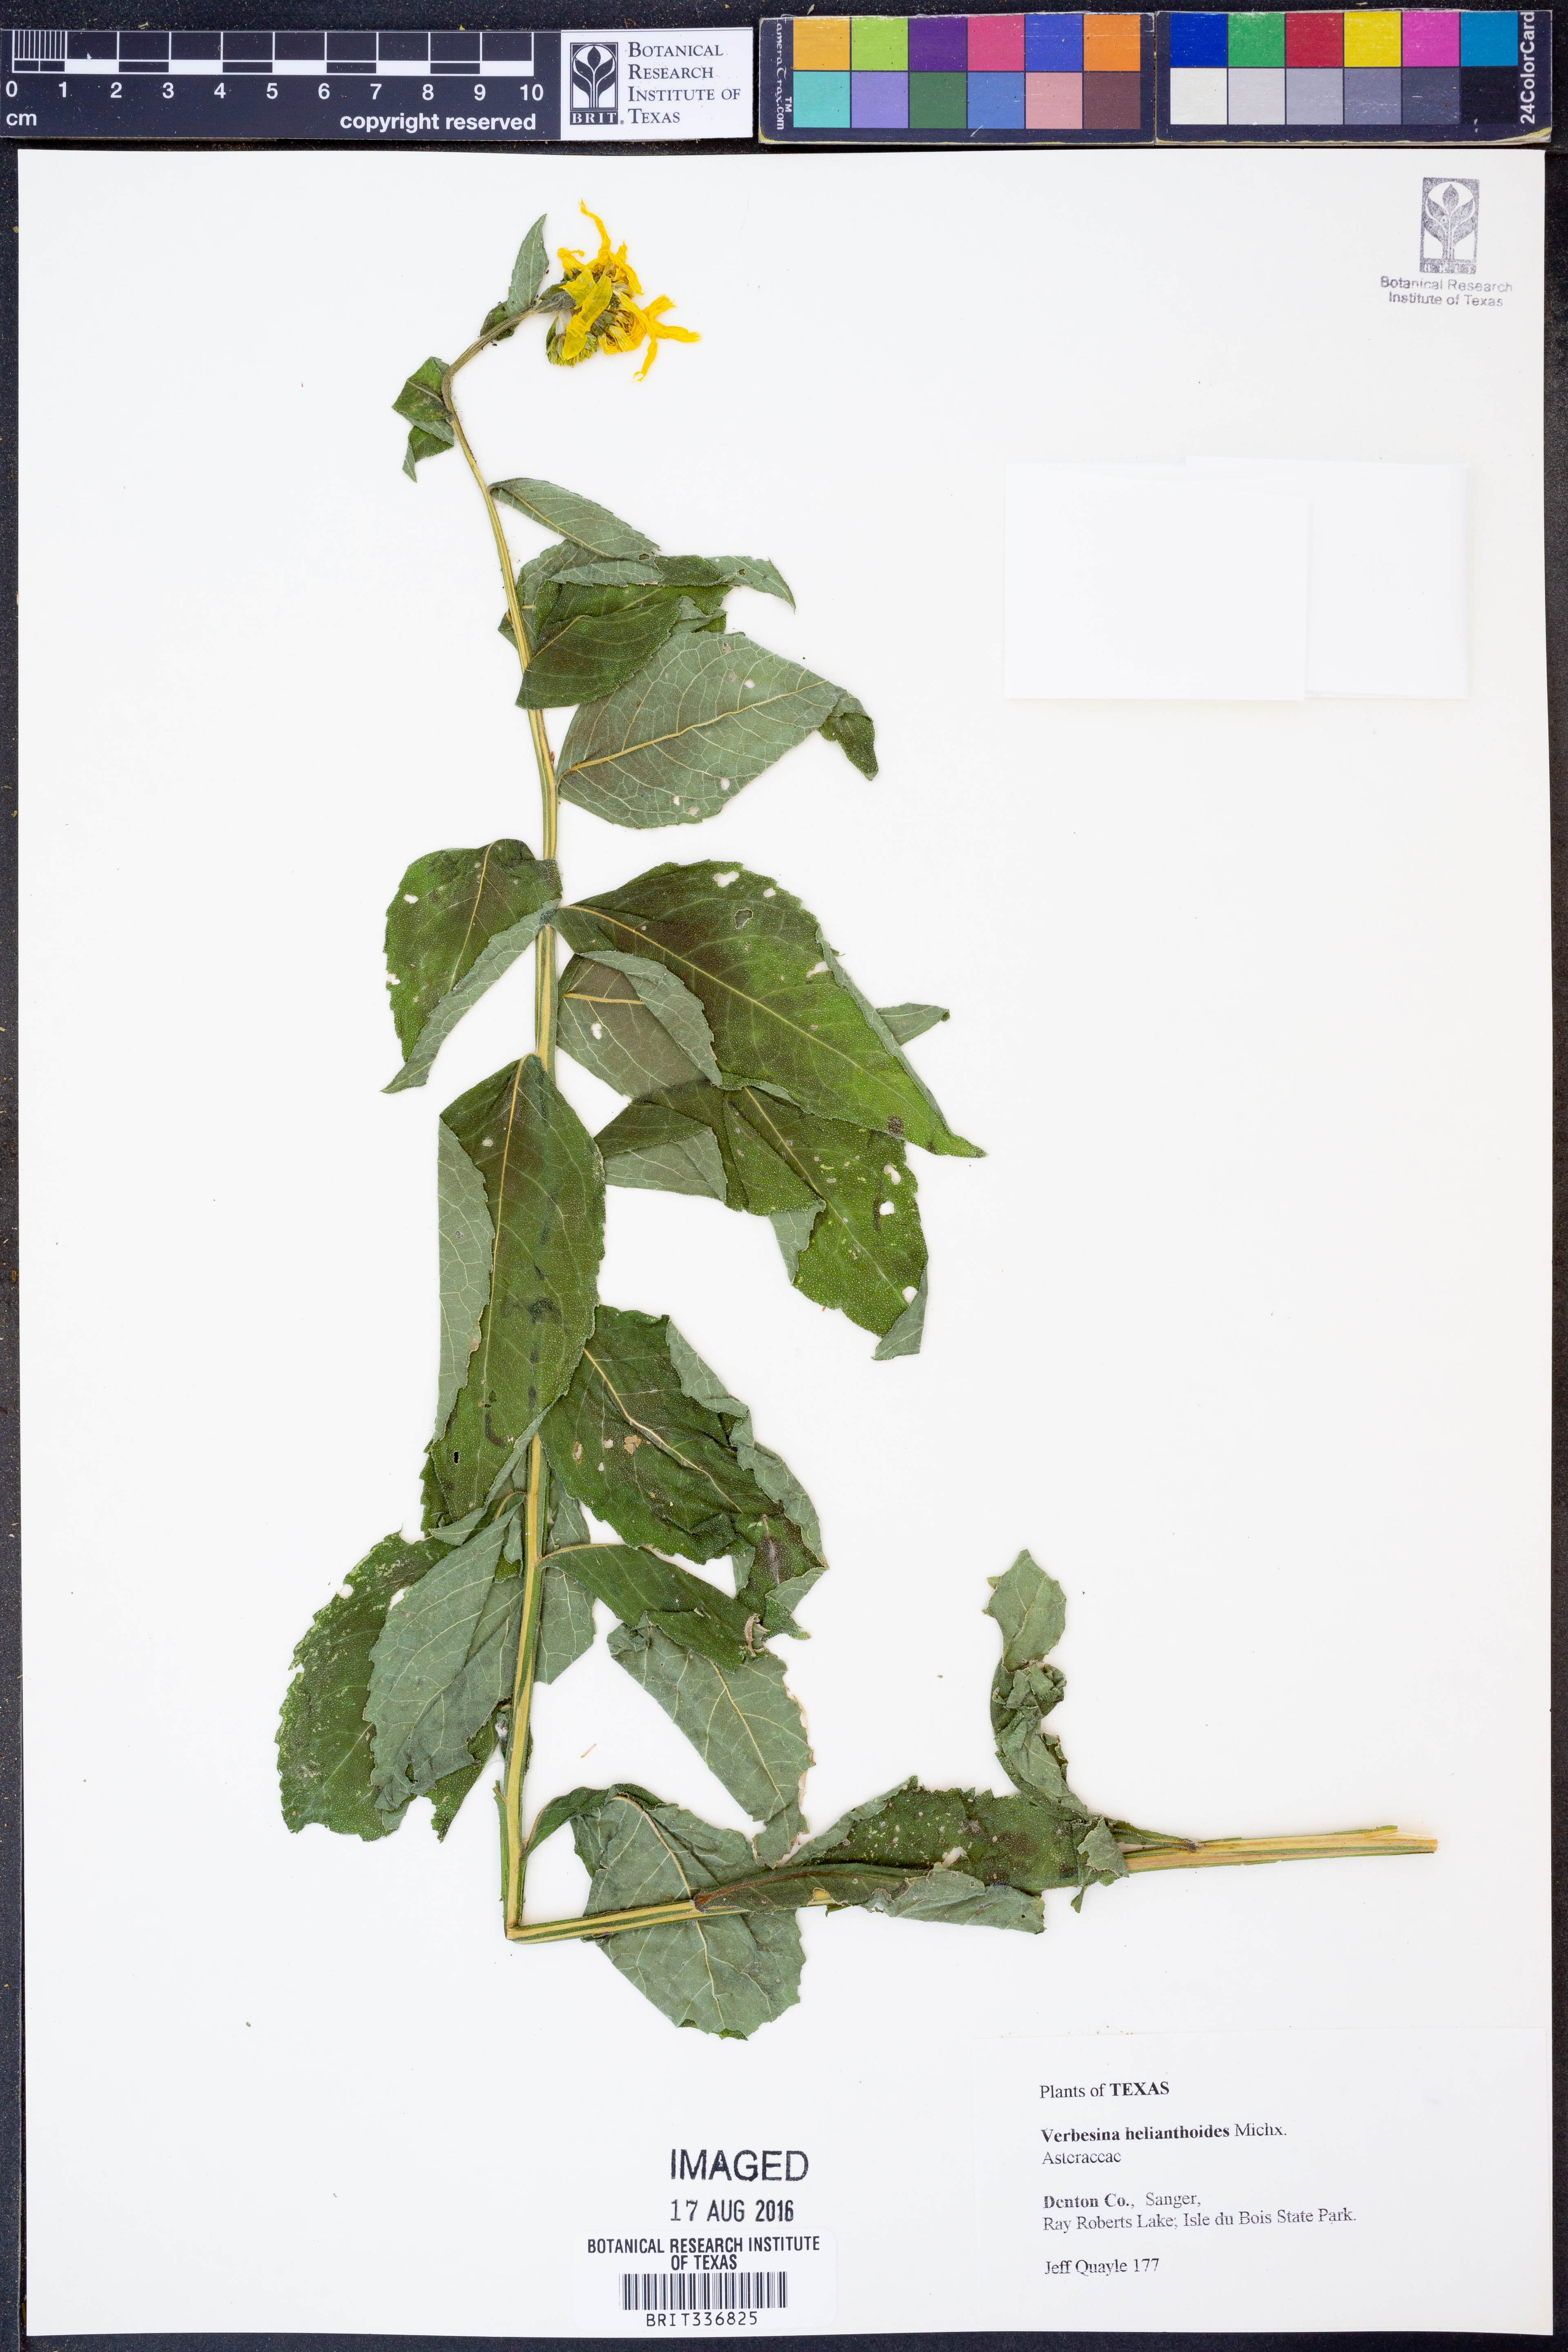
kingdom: Plantae
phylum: Tracheophyta
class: Magnoliopsida
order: Asterales
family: Asteraceae
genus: Verbesina
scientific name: Verbesina helianthoides
